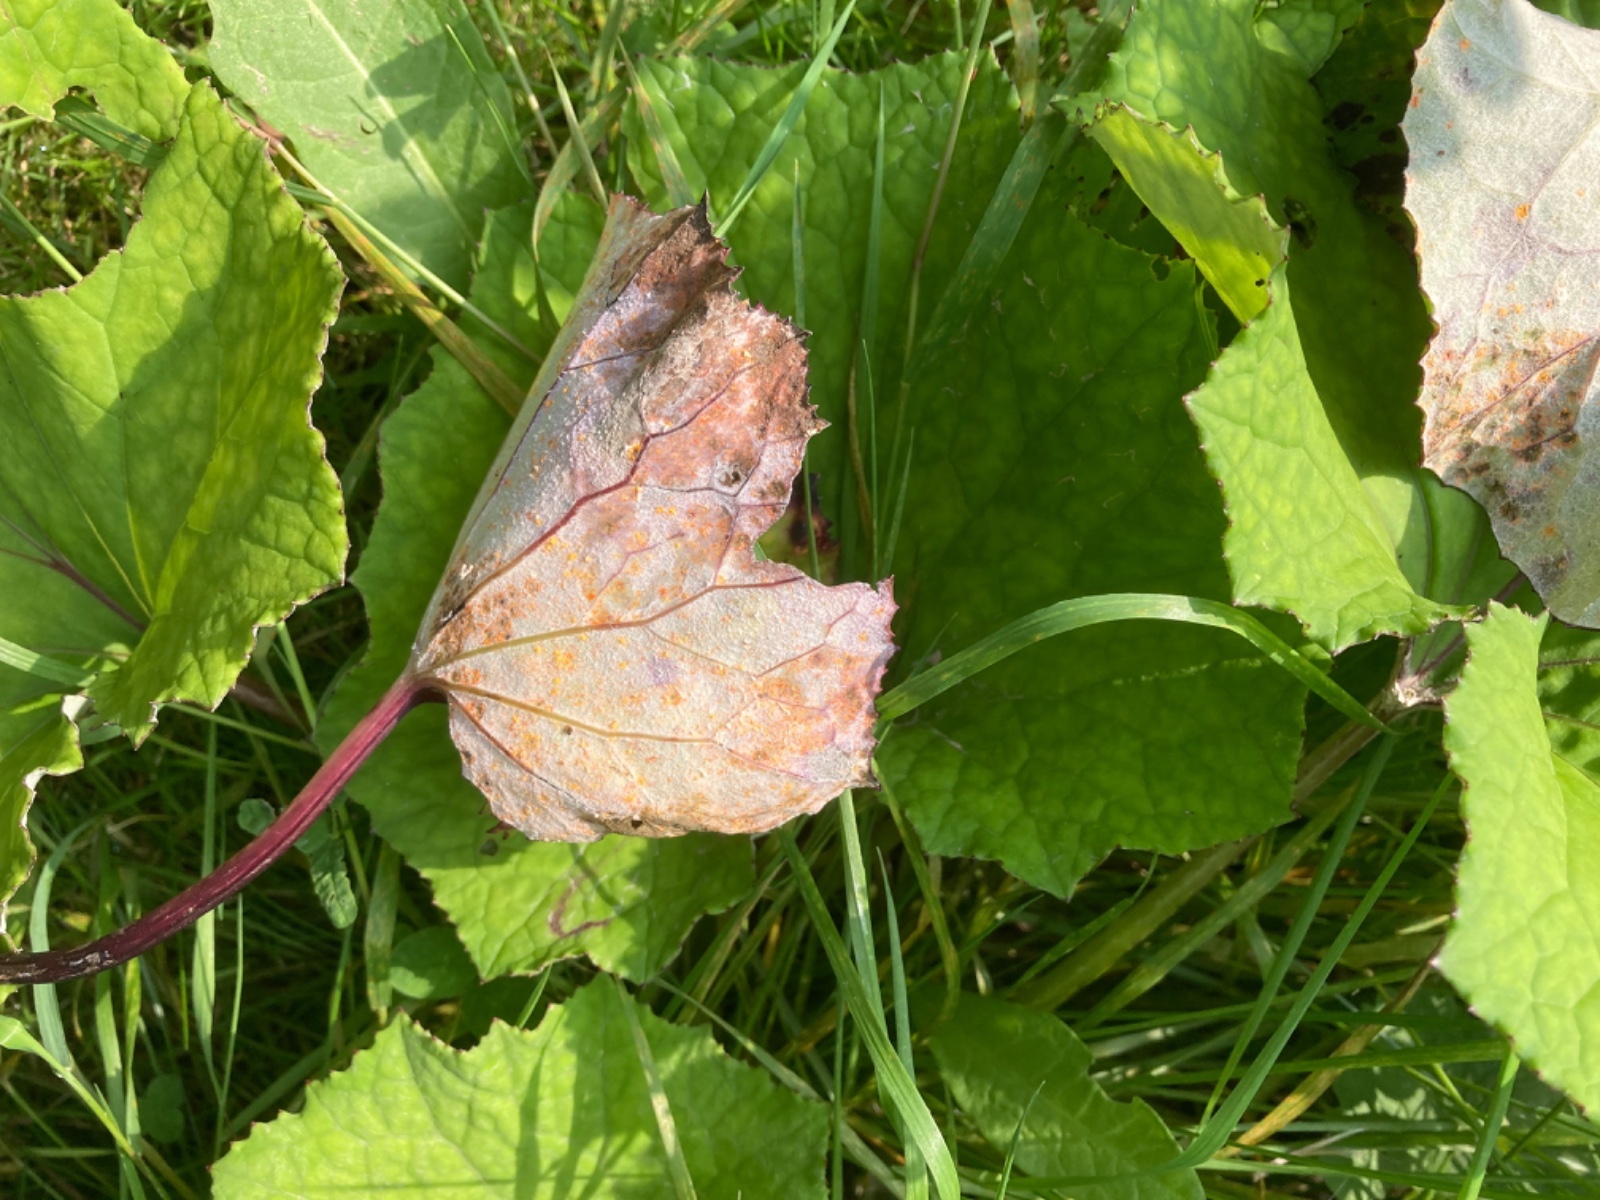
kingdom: Fungi
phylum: Basidiomycota
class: Pucciniomycetes
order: Pucciniales
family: Coleosporiaceae
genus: Coleosporium
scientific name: Coleosporium tussilaginis
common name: almindelig fyrrenålerust
